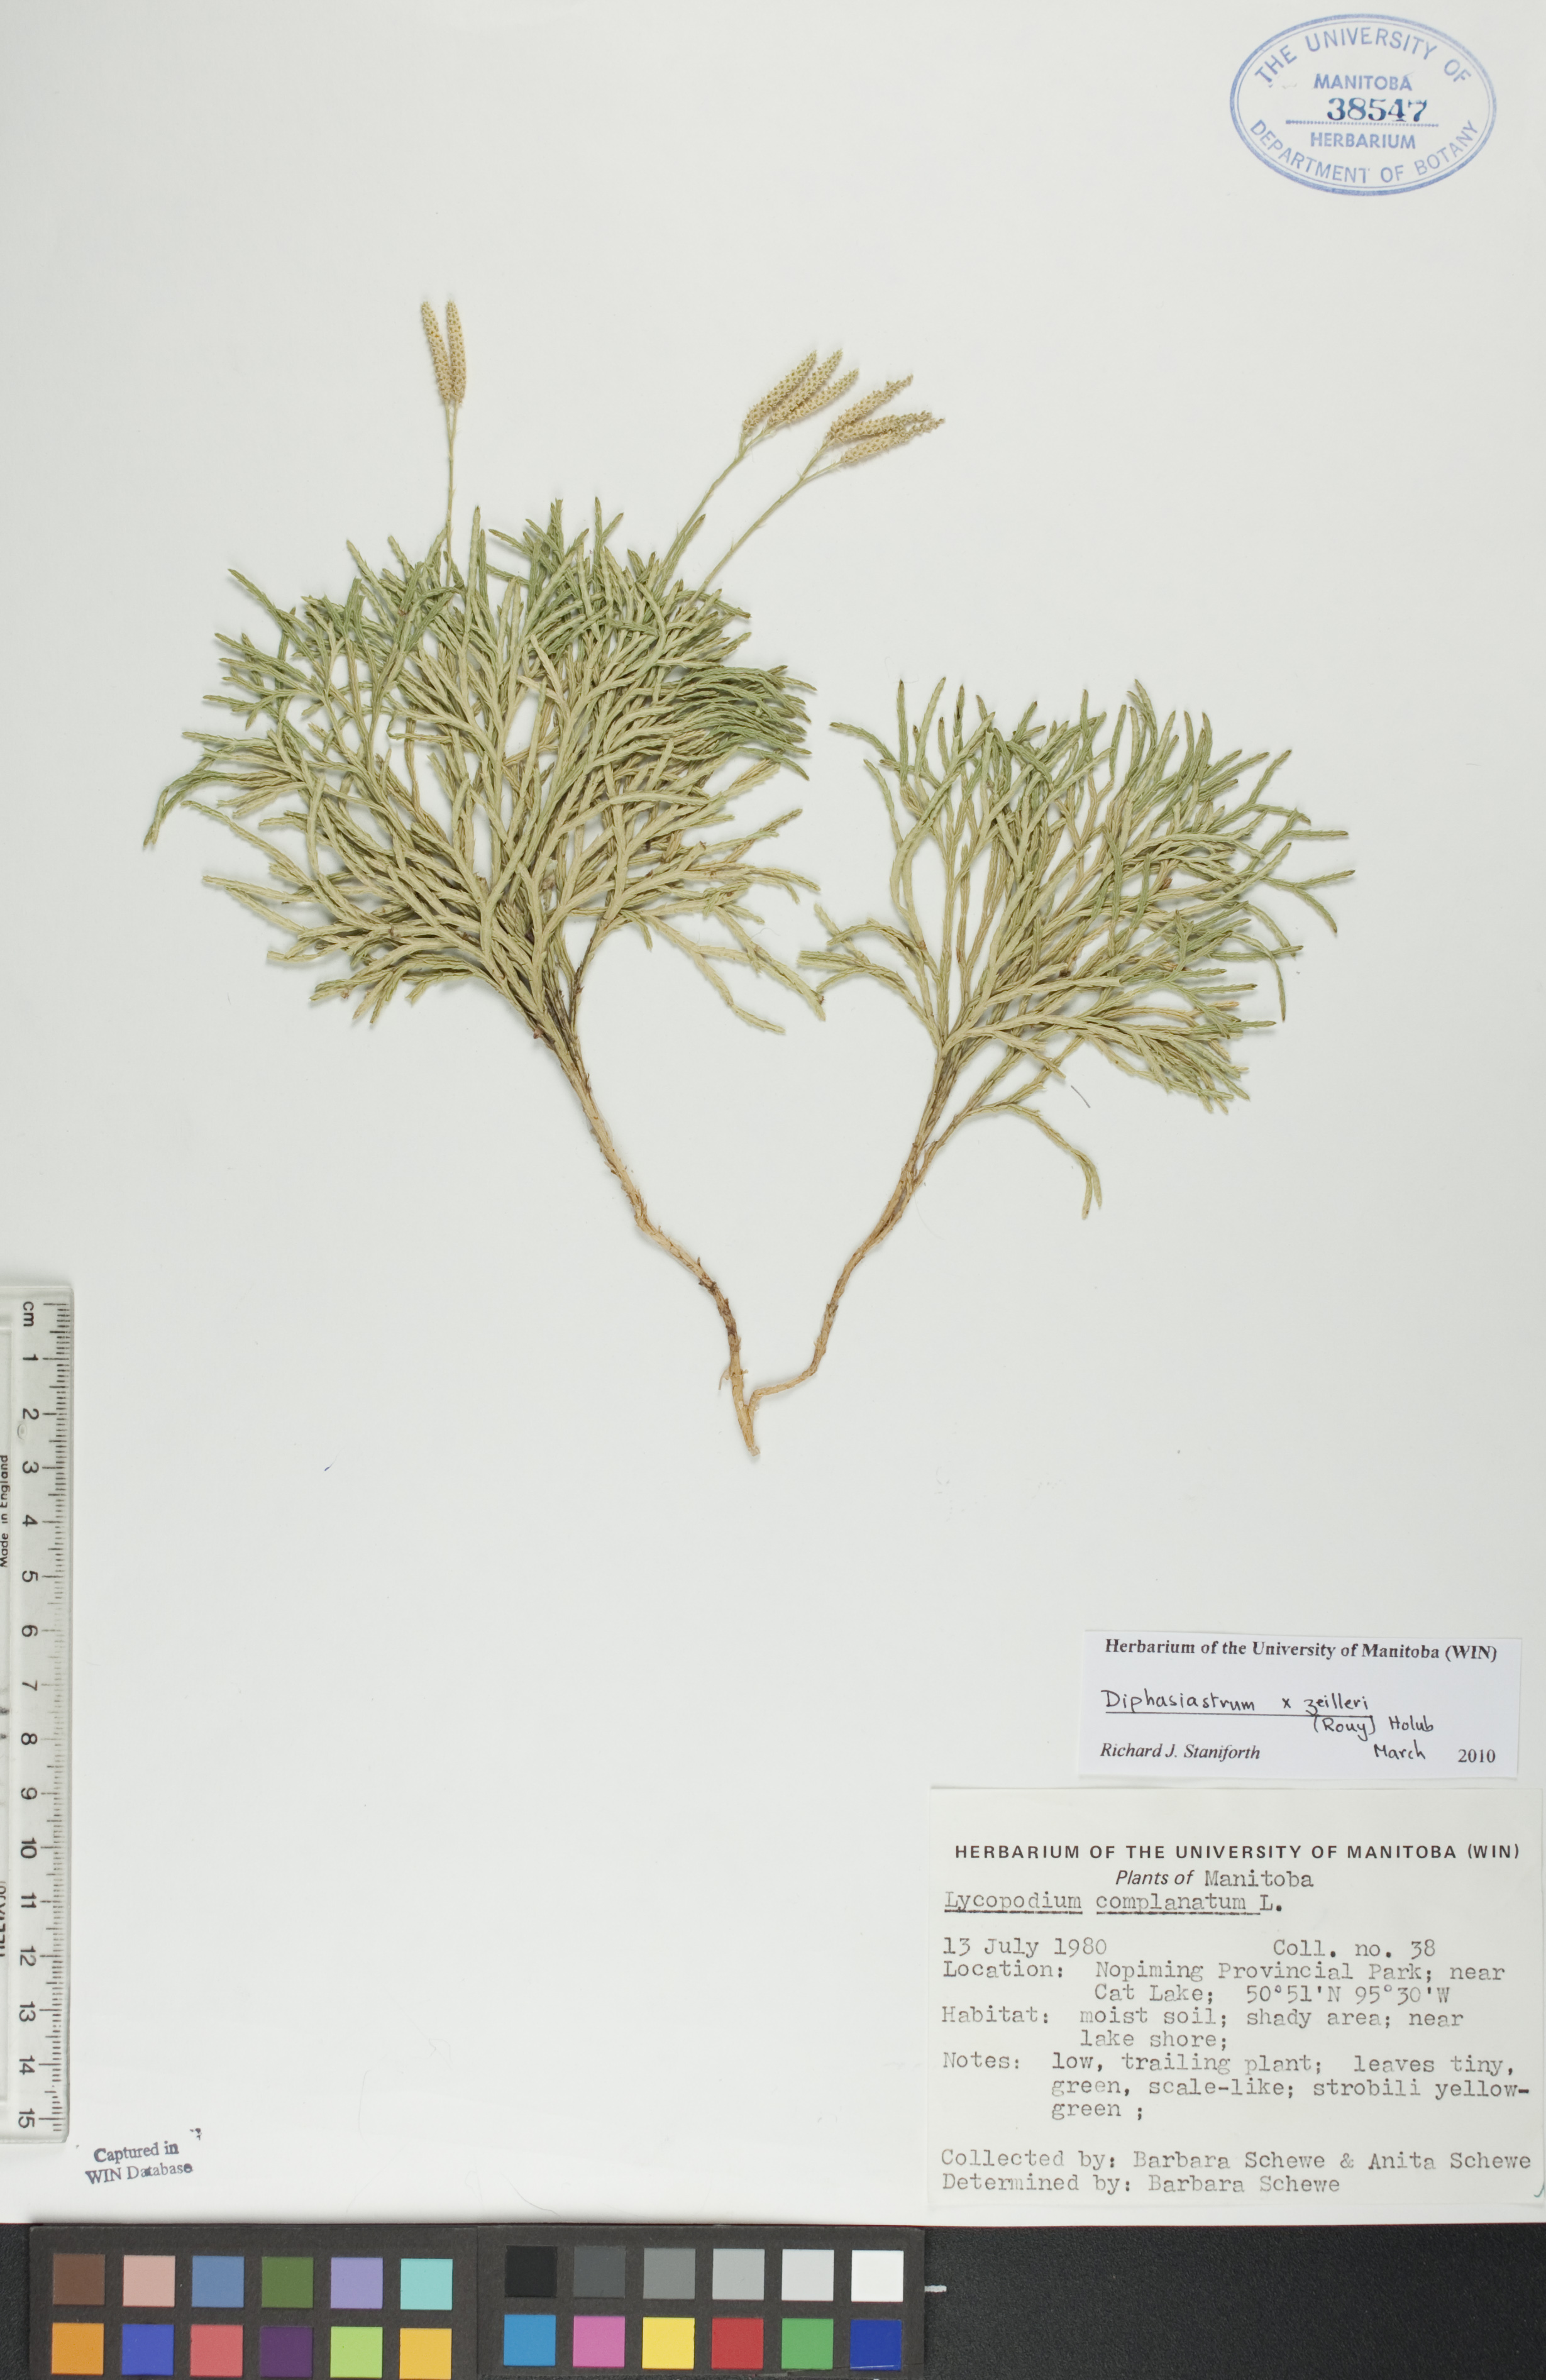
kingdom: Plantae
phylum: Tracheophyta
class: Lycopodiopsida
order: Lycopodiales
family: Lycopodiaceae
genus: Diphasiastrum
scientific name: Diphasiastrum zeilleri
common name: Zeiller's clubmoss
